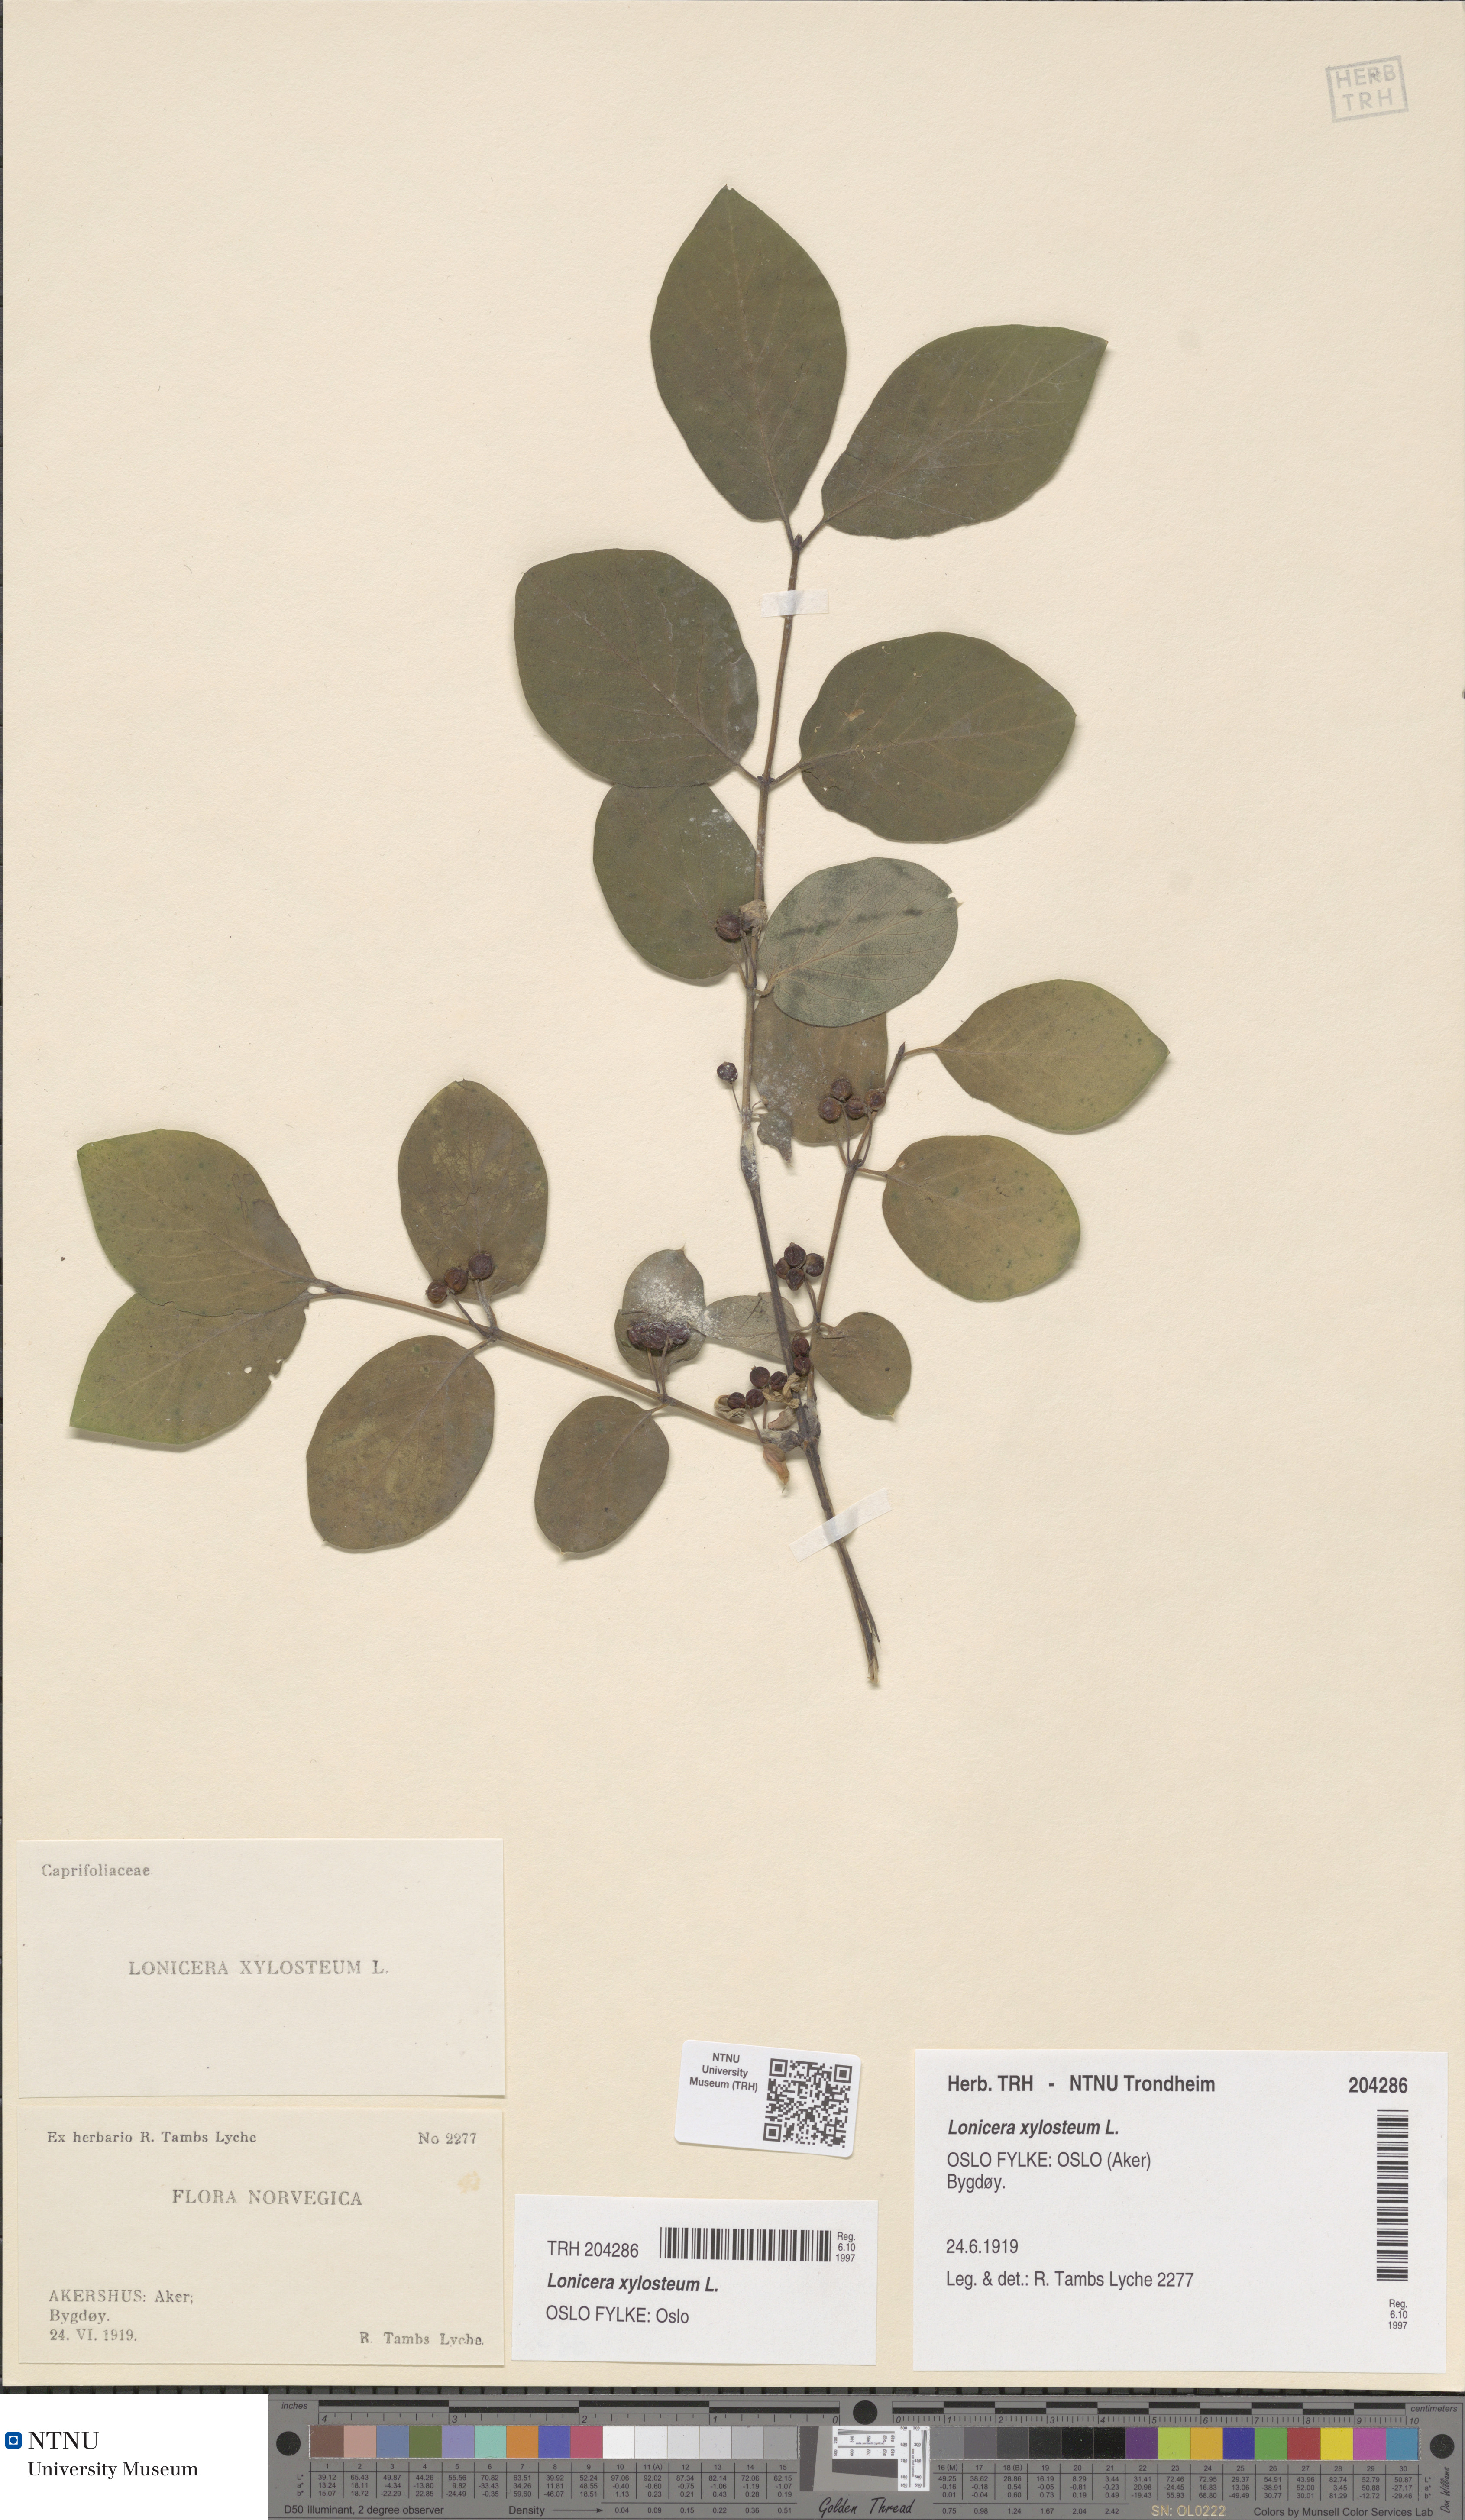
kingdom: Plantae
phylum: Tracheophyta
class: Magnoliopsida
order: Dipsacales
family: Caprifoliaceae
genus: Lonicera
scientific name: Lonicera xylosteum
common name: Fly honeysuckle
